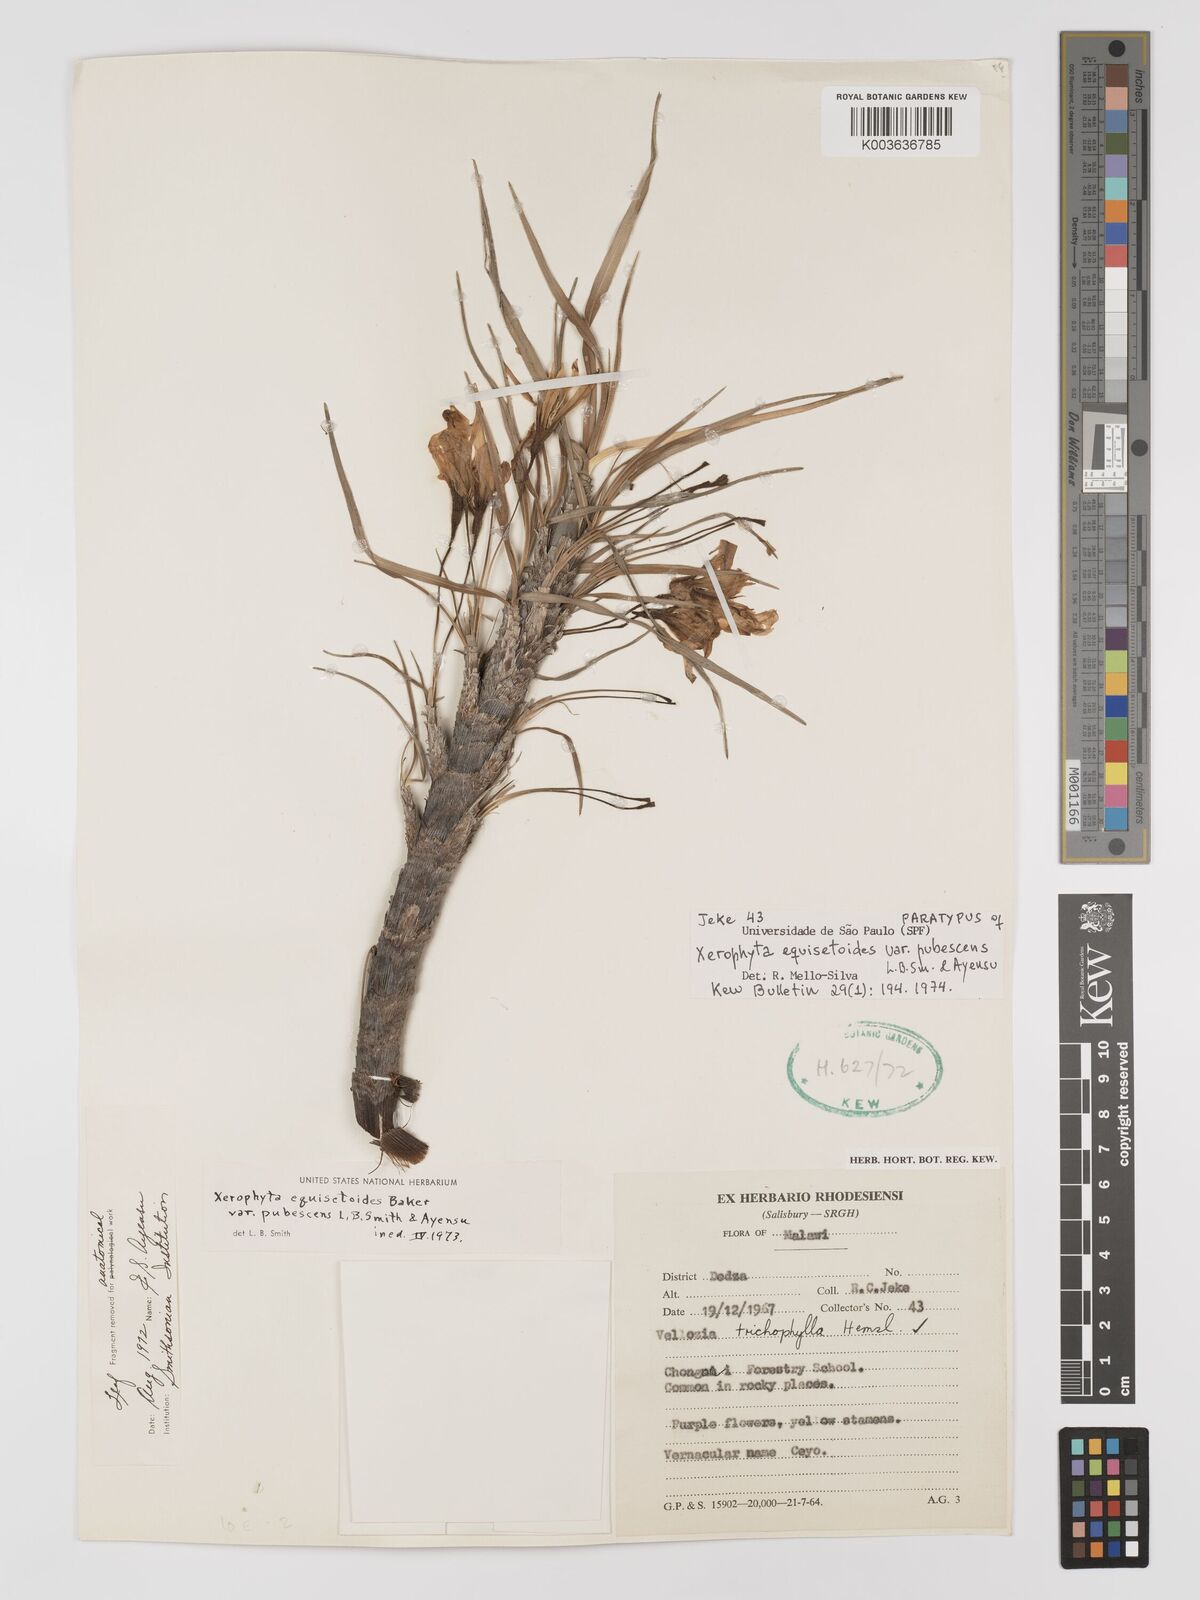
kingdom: Plantae
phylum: Tracheophyta
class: Liliopsida
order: Pandanales
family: Velloziaceae
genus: Xerophyta
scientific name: Xerophyta wentzeliana
